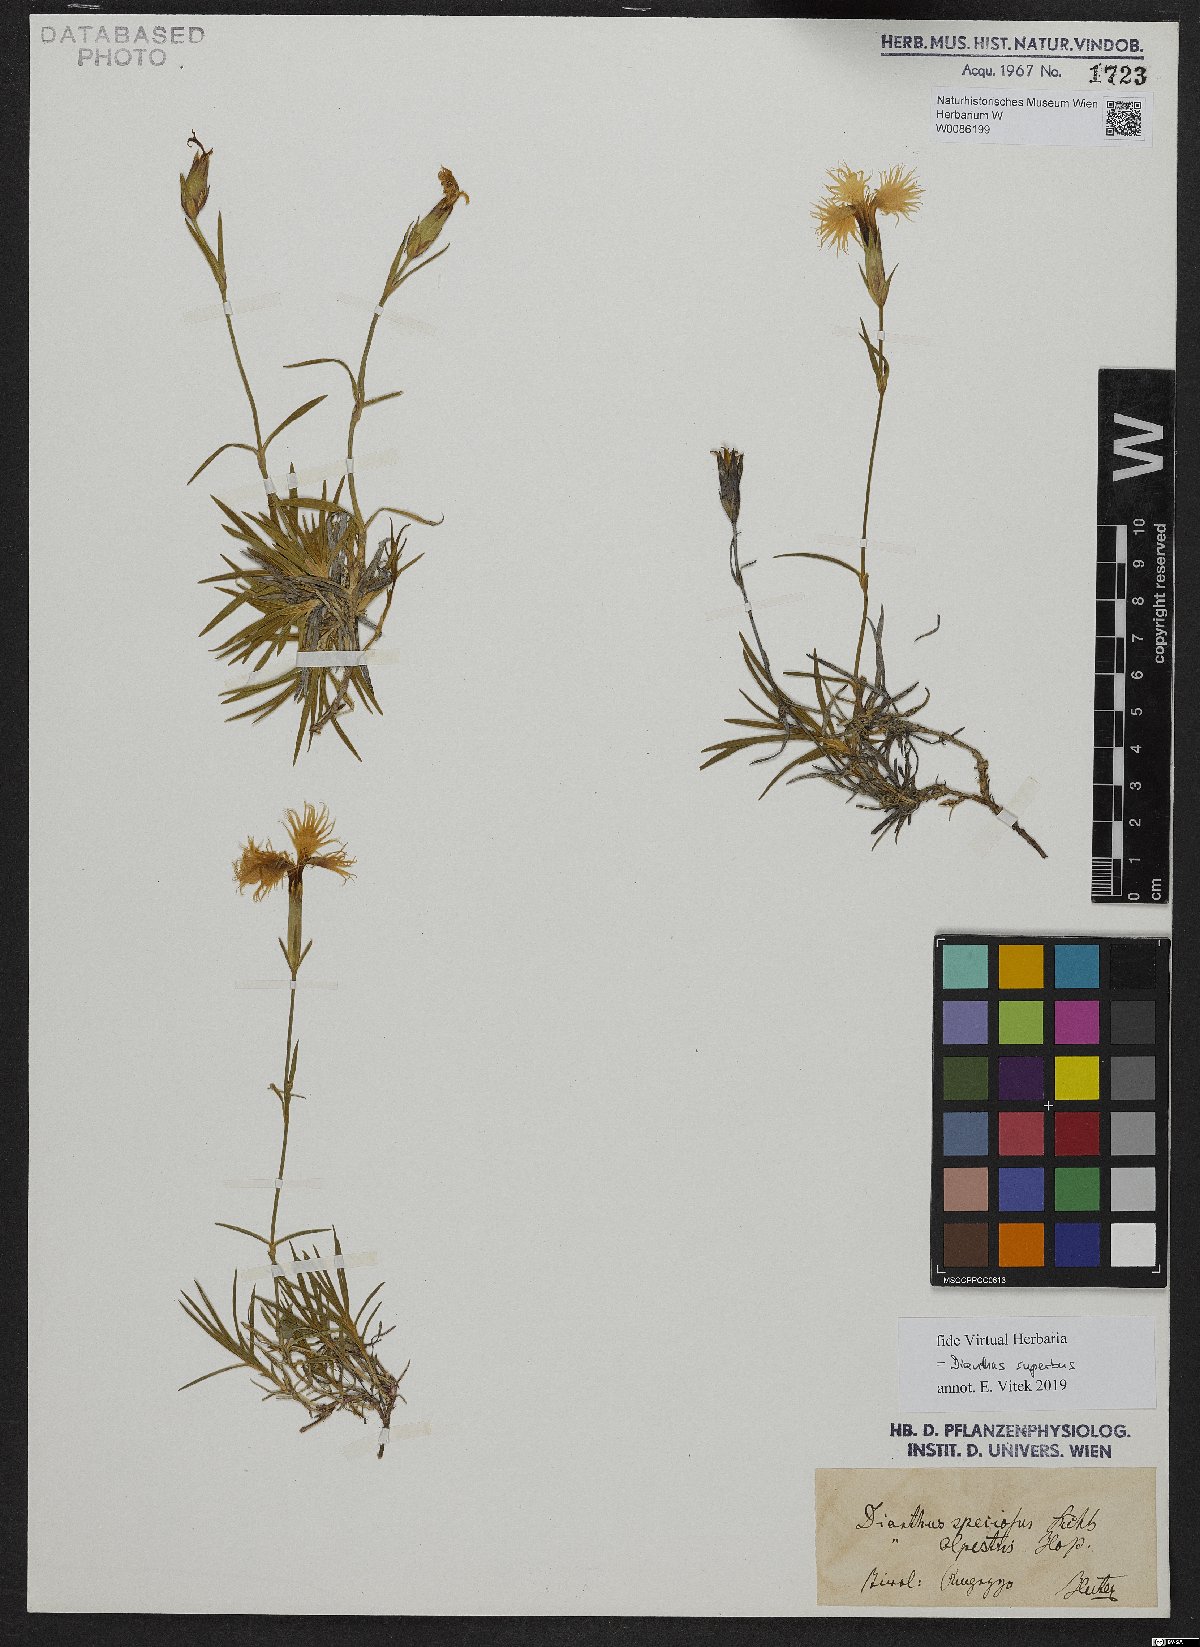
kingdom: Plantae
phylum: Tracheophyta
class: Magnoliopsida
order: Caryophyllales
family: Caryophyllaceae
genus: Dianthus
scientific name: Dianthus superbus
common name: Fringed pink
